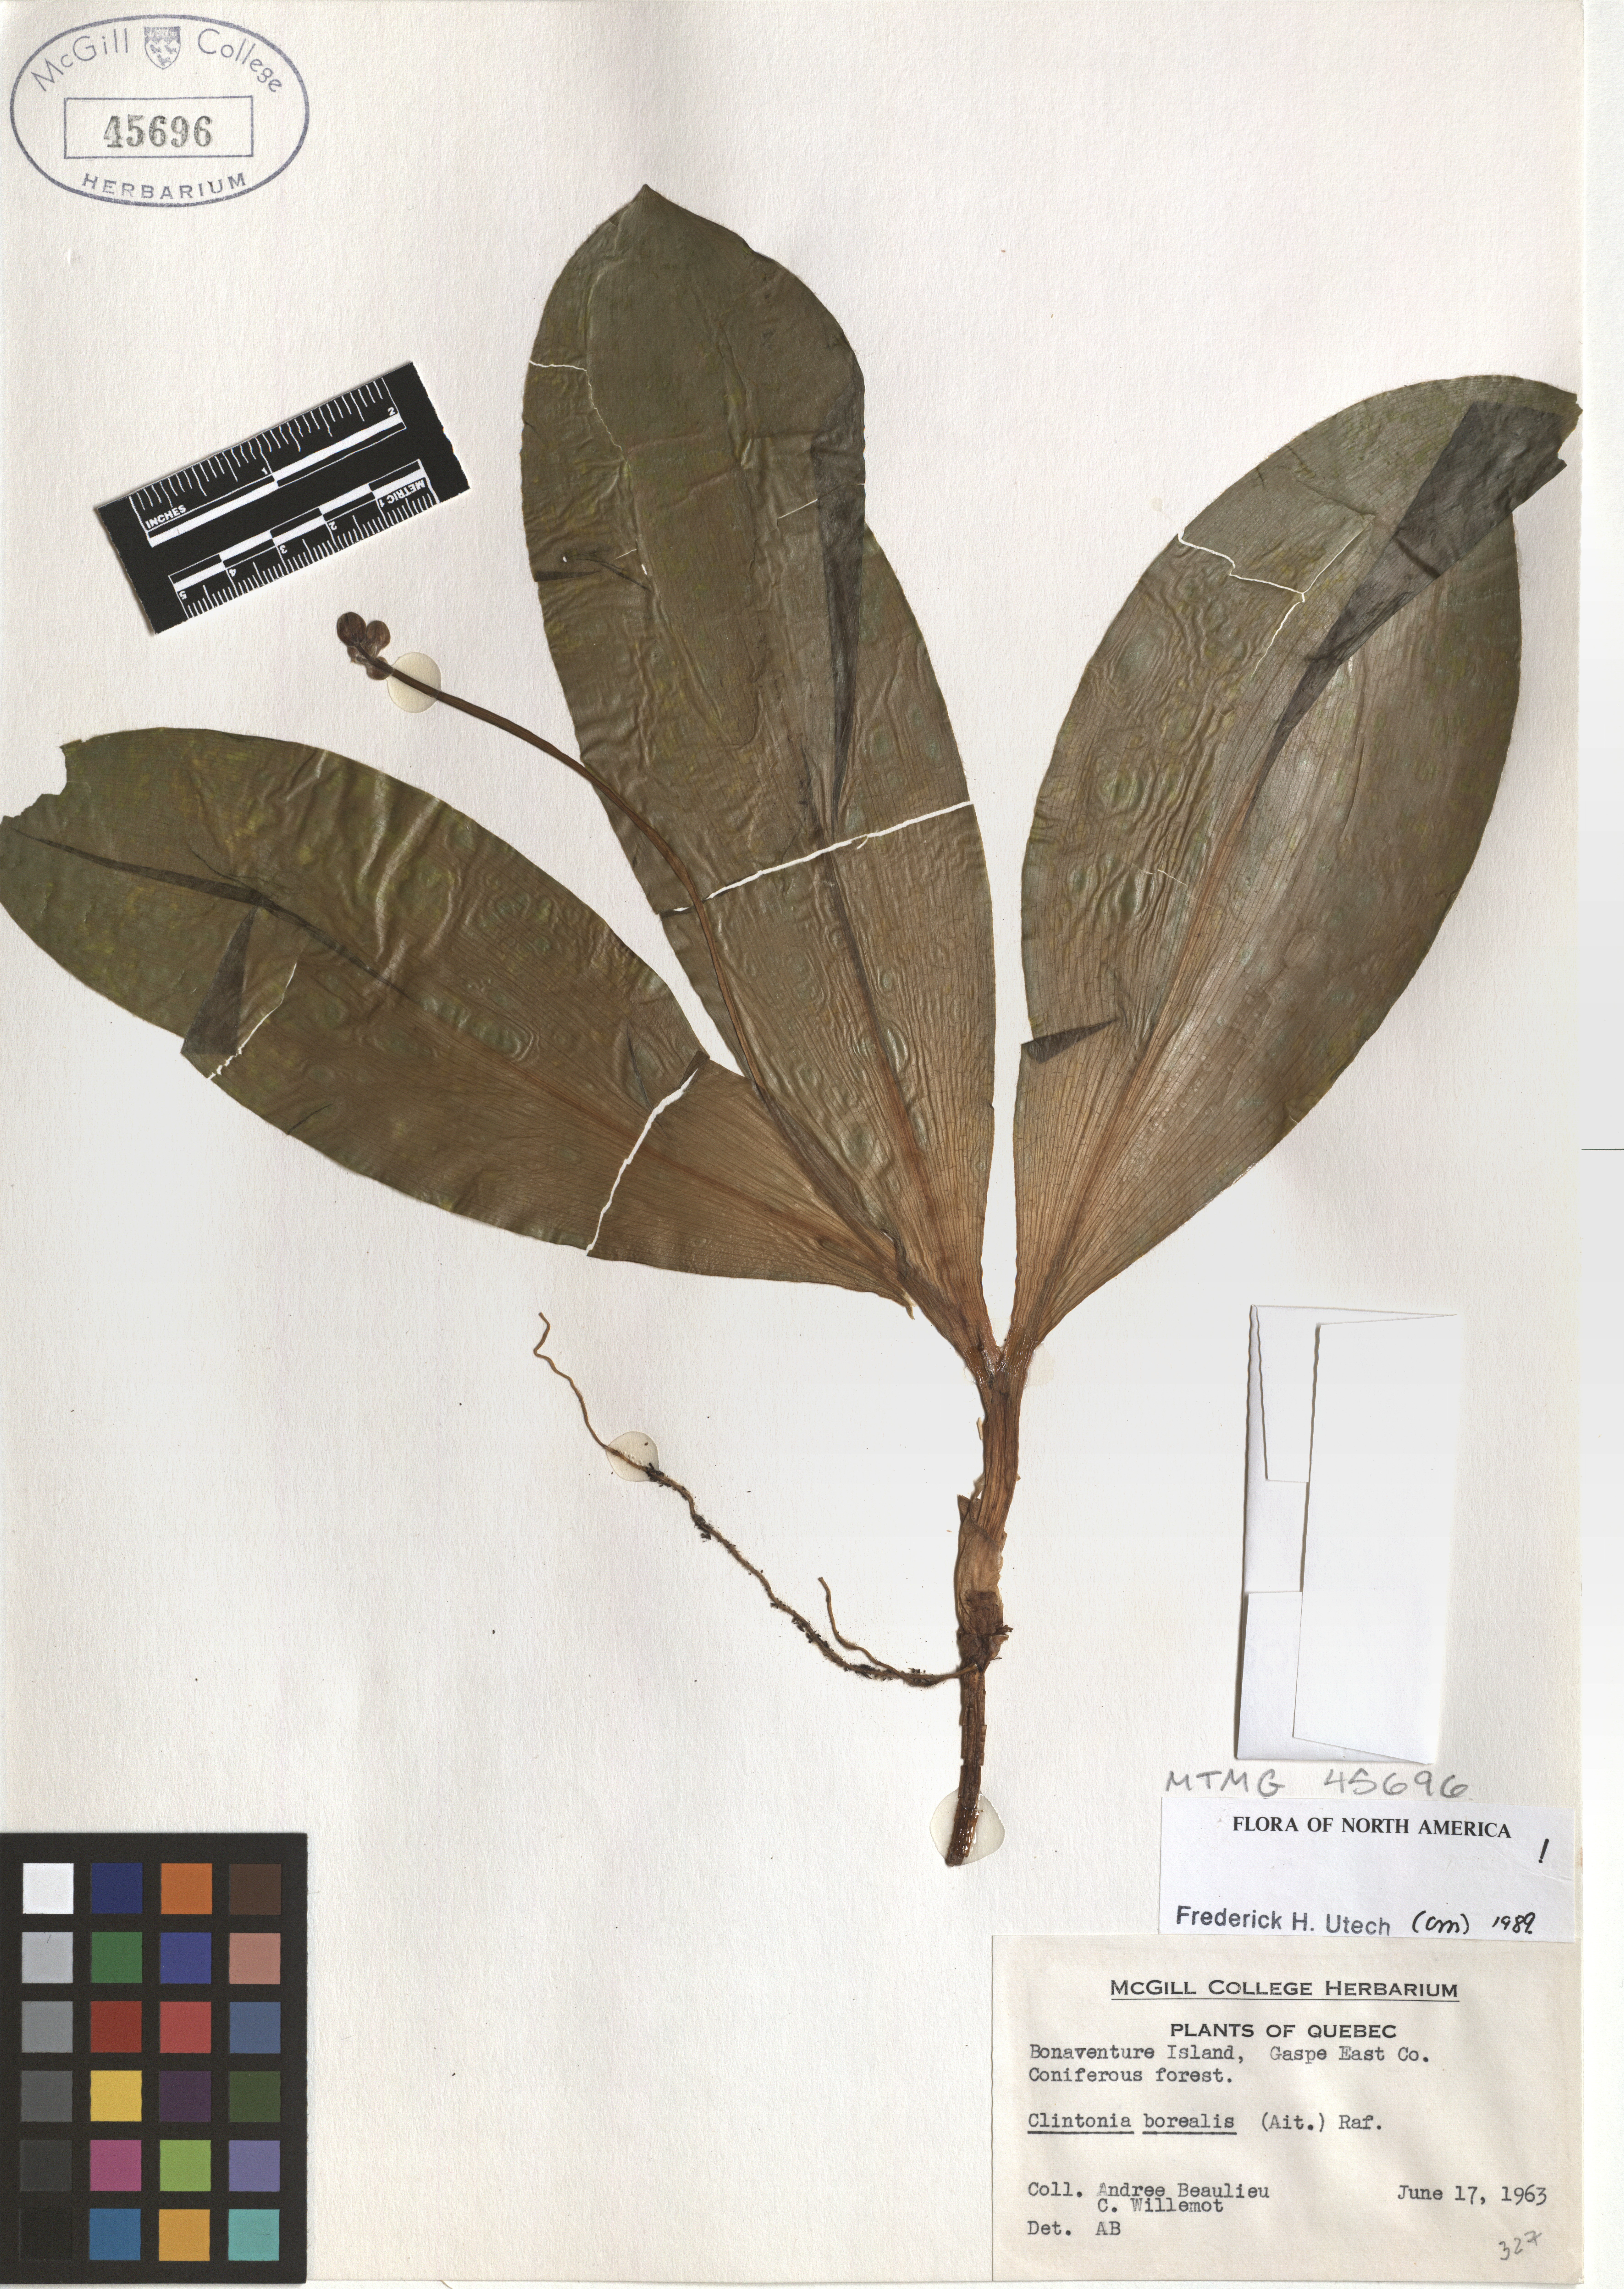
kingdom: Plantae
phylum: Tracheophyta
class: Liliopsida
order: Liliales
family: Liliaceae
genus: Clintonia
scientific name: Clintonia borealis
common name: Yellow clintonia
